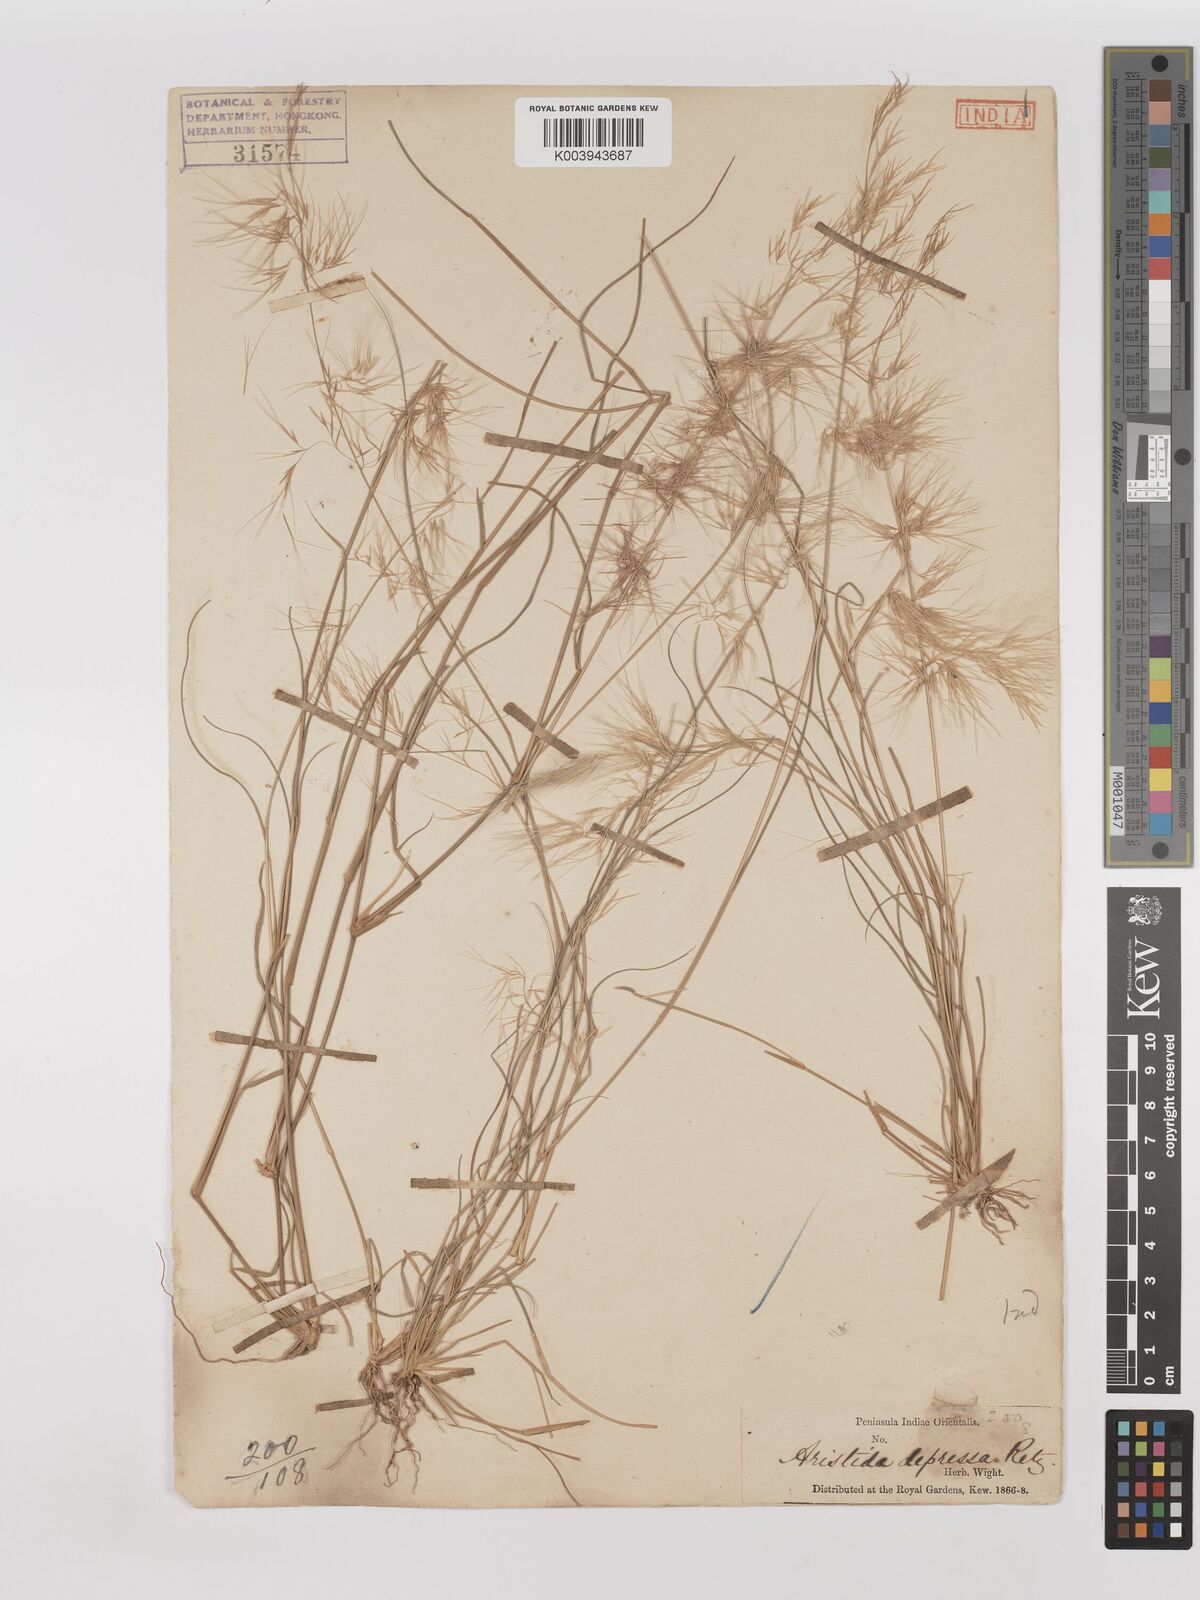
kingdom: Plantae
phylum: Tracheophyta
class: Liliopsida
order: Poales
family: Poaceae
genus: Aristida
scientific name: Aristida adscensionis
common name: Sixweeks threeawn
